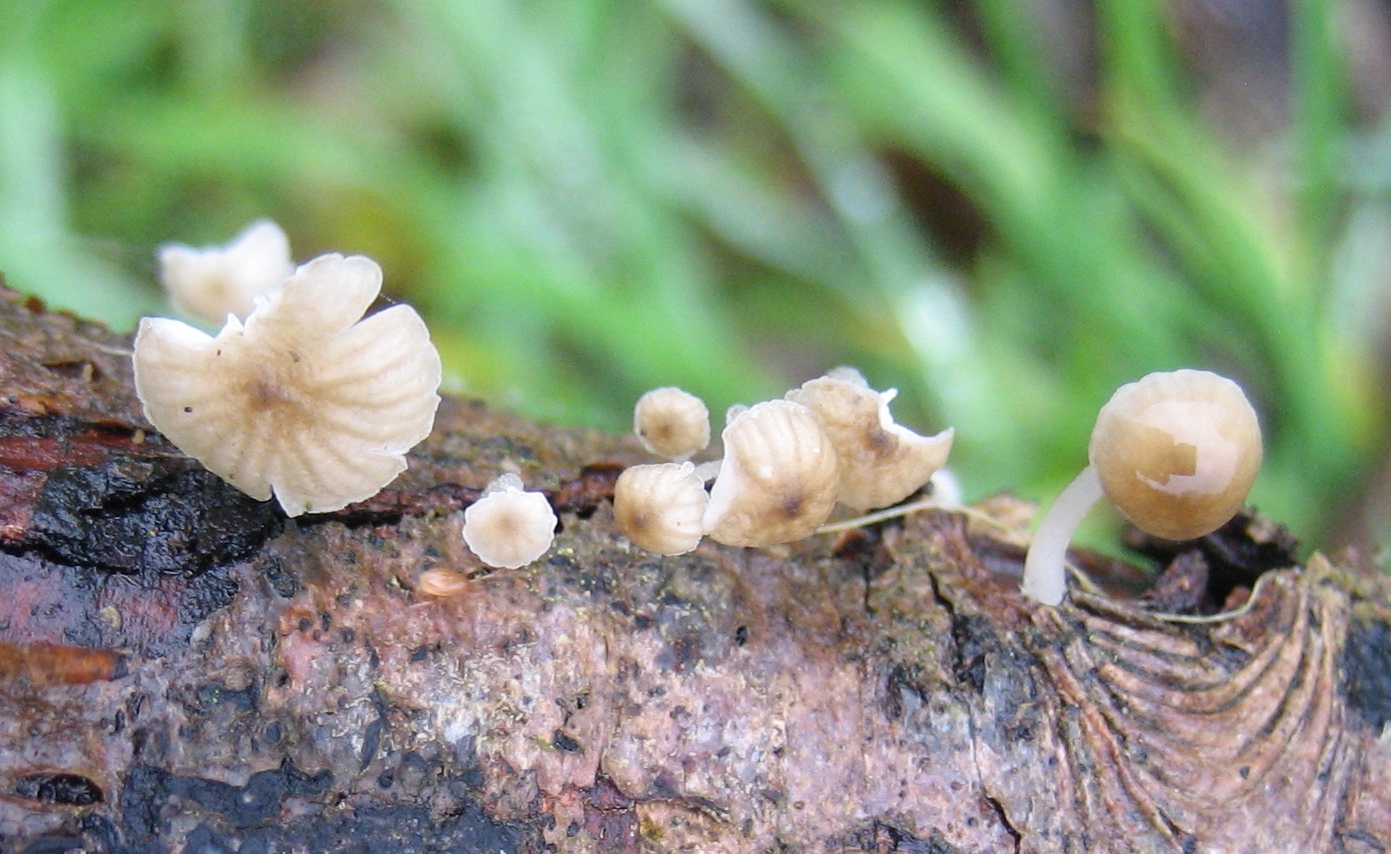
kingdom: Fungi
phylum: Basidiomycota
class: Agaricomycetes
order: Agaricales
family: Porotheleaceae
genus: Phloeomana
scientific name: Phloeomana speirea
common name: kvist-huesvamp
